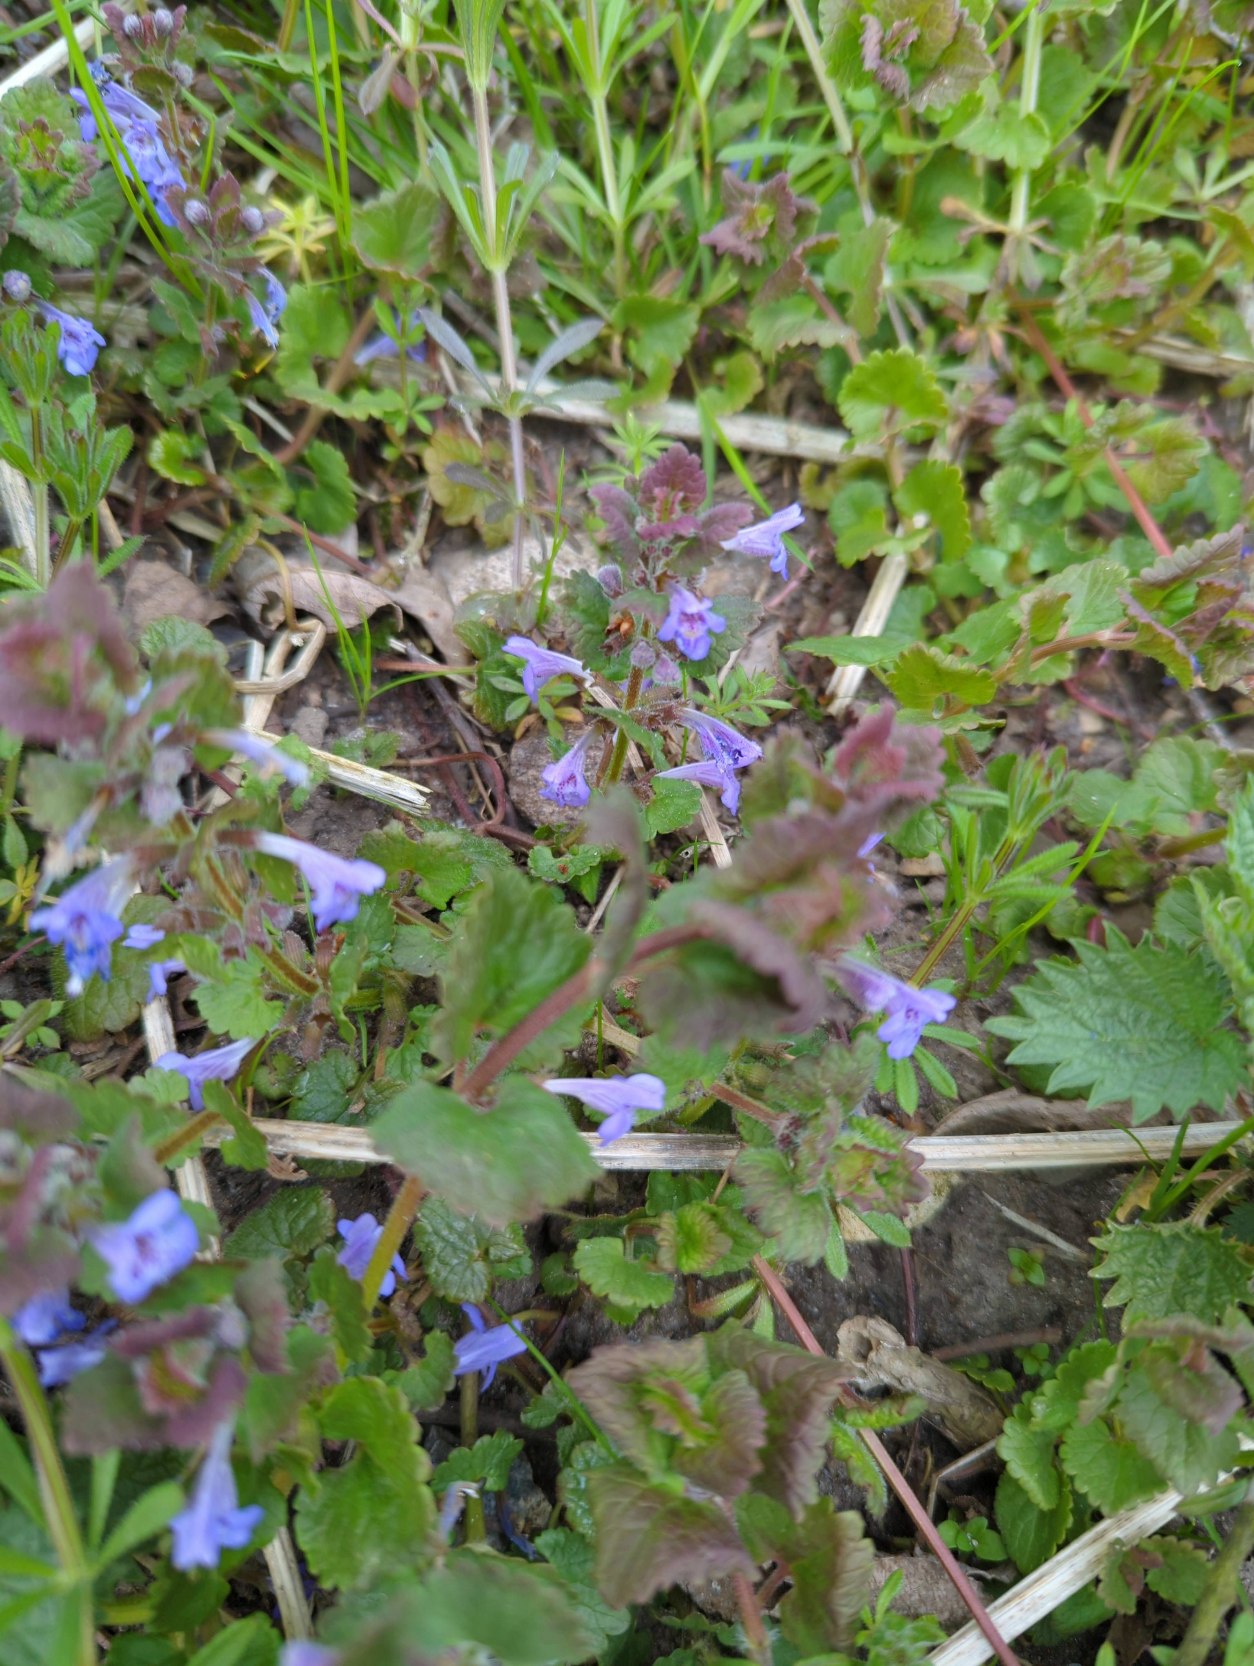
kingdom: Plantae
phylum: Tracheophyta
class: Magnoliopsida
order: Lamiales
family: Lamiaceae
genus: Glechoma
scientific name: Glechoma hederacea
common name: Korsknap
